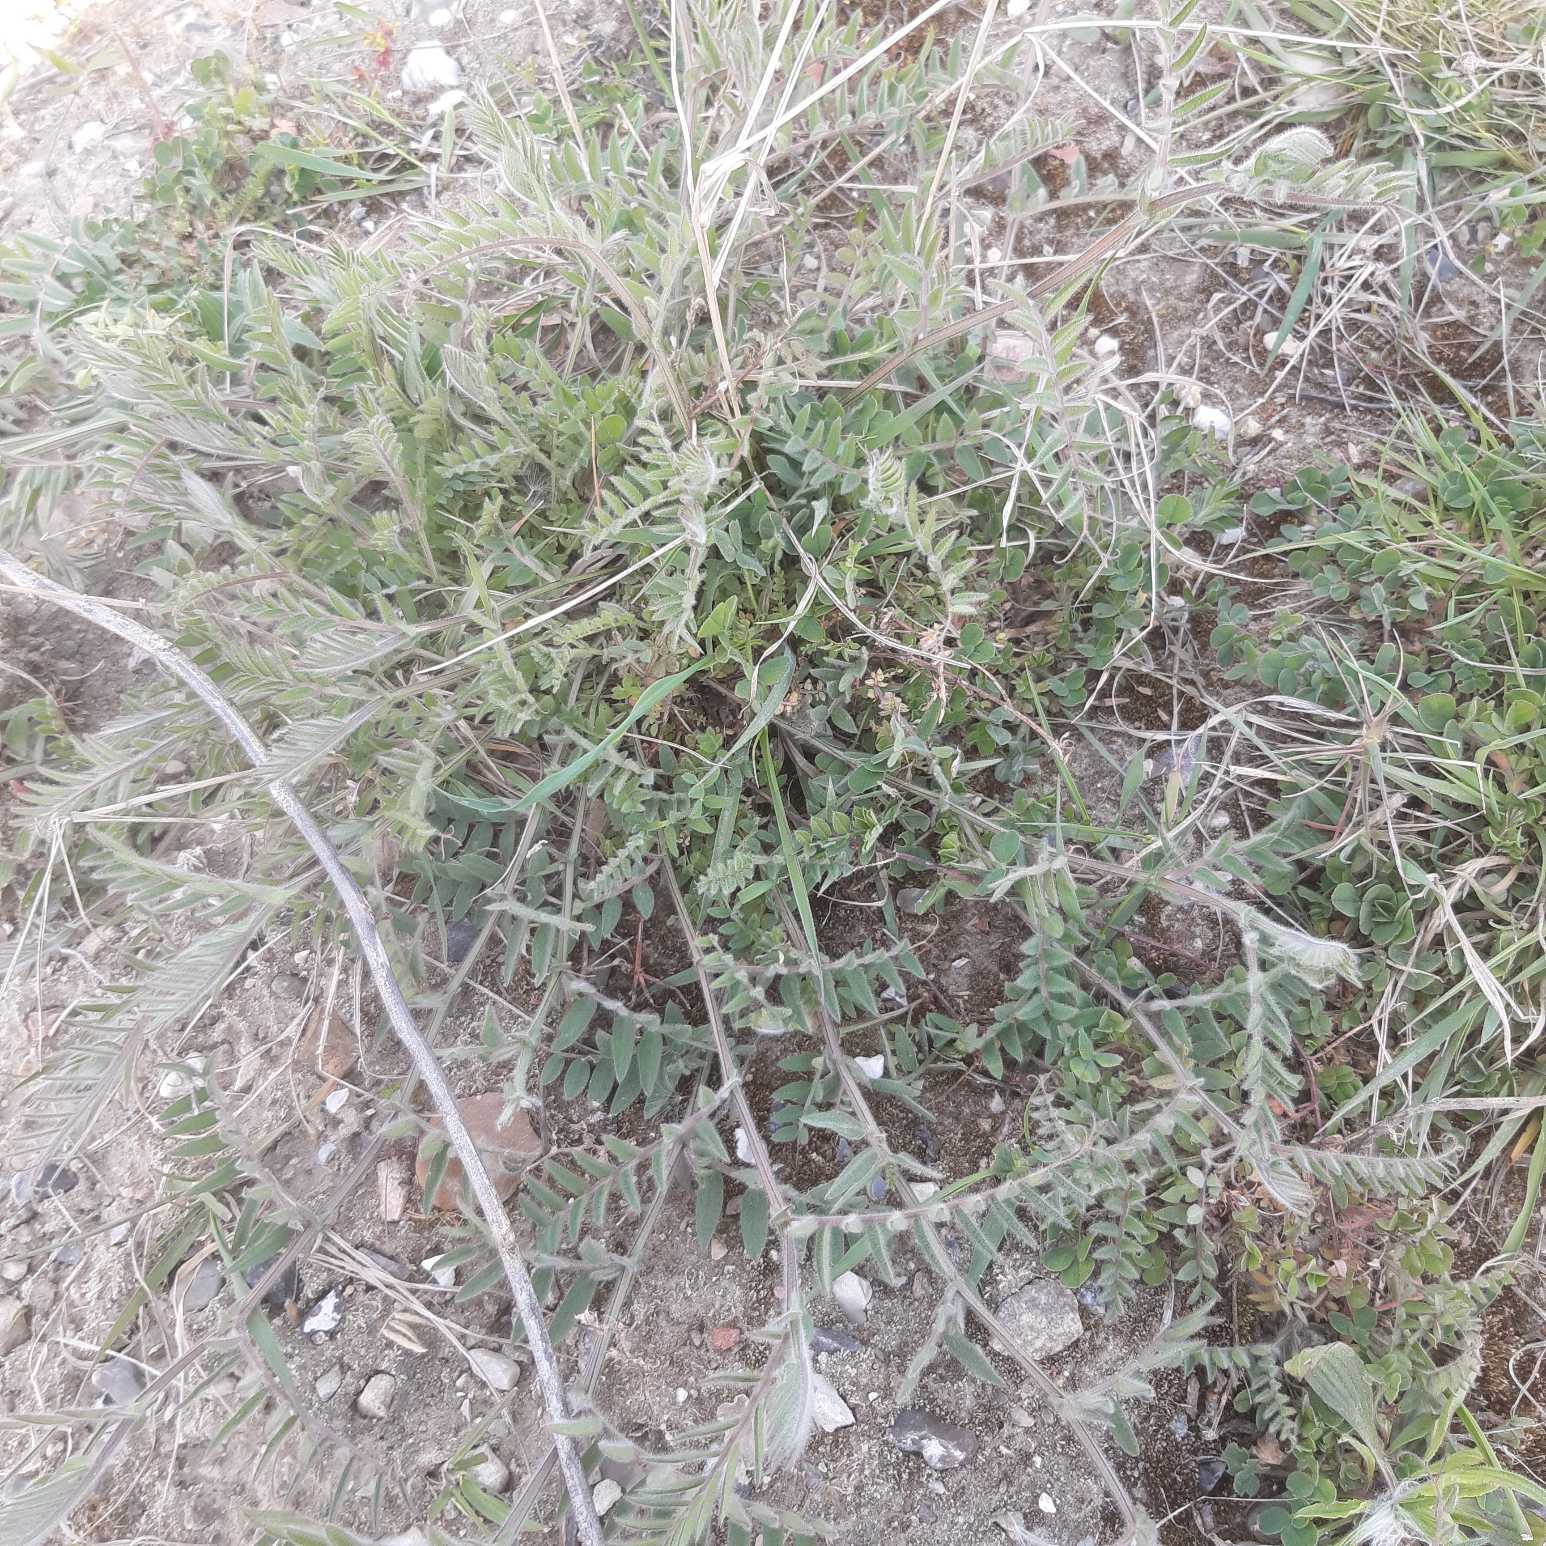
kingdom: Plantae
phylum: Tracheophyta
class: Magnoliopsida
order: Fabales
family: Fabaceae
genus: Vicia
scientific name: Vicia villosa
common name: Sand-vikke
